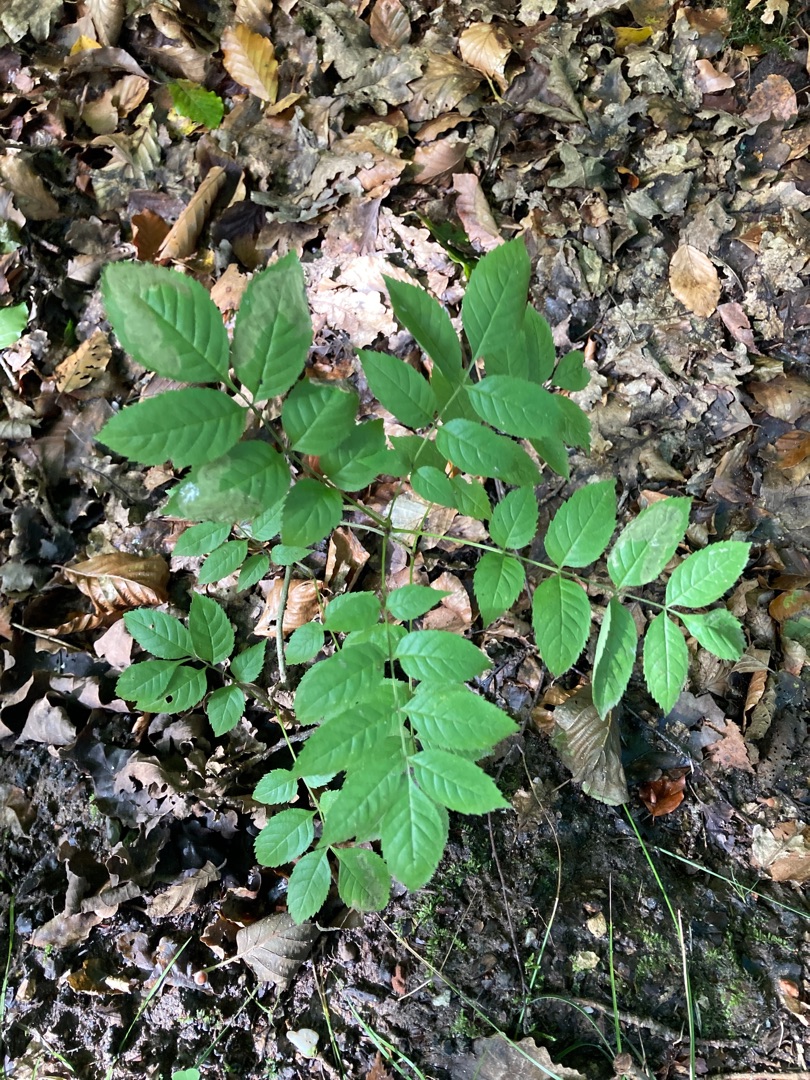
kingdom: Plantae
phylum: Tracheophyta
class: Magnoliopsida
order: Lamiales
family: Oleaceae
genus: Fraxinus
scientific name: Fraxinus excelsior
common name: Ask
